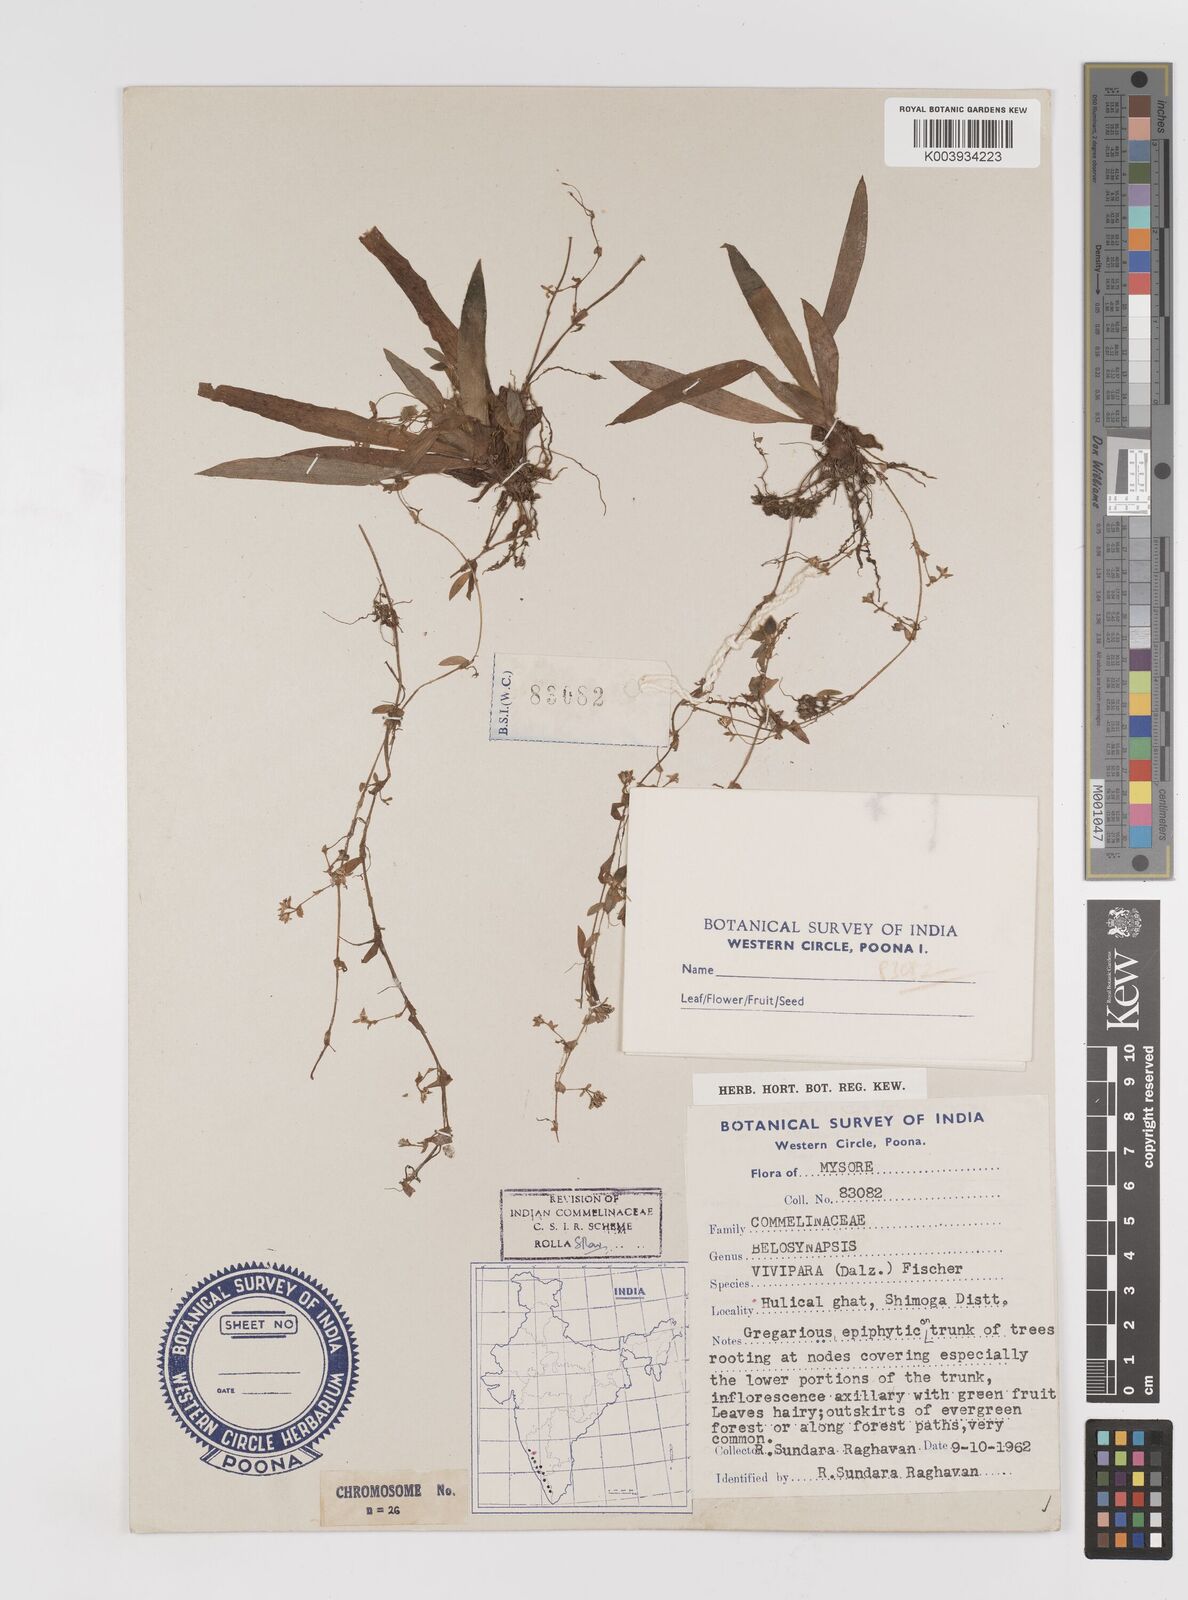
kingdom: Plantae
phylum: Tracheophyta
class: Liliopsida
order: Commelinales
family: Commelinaceae
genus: Cyanotis
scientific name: Cyanotis vivipara
